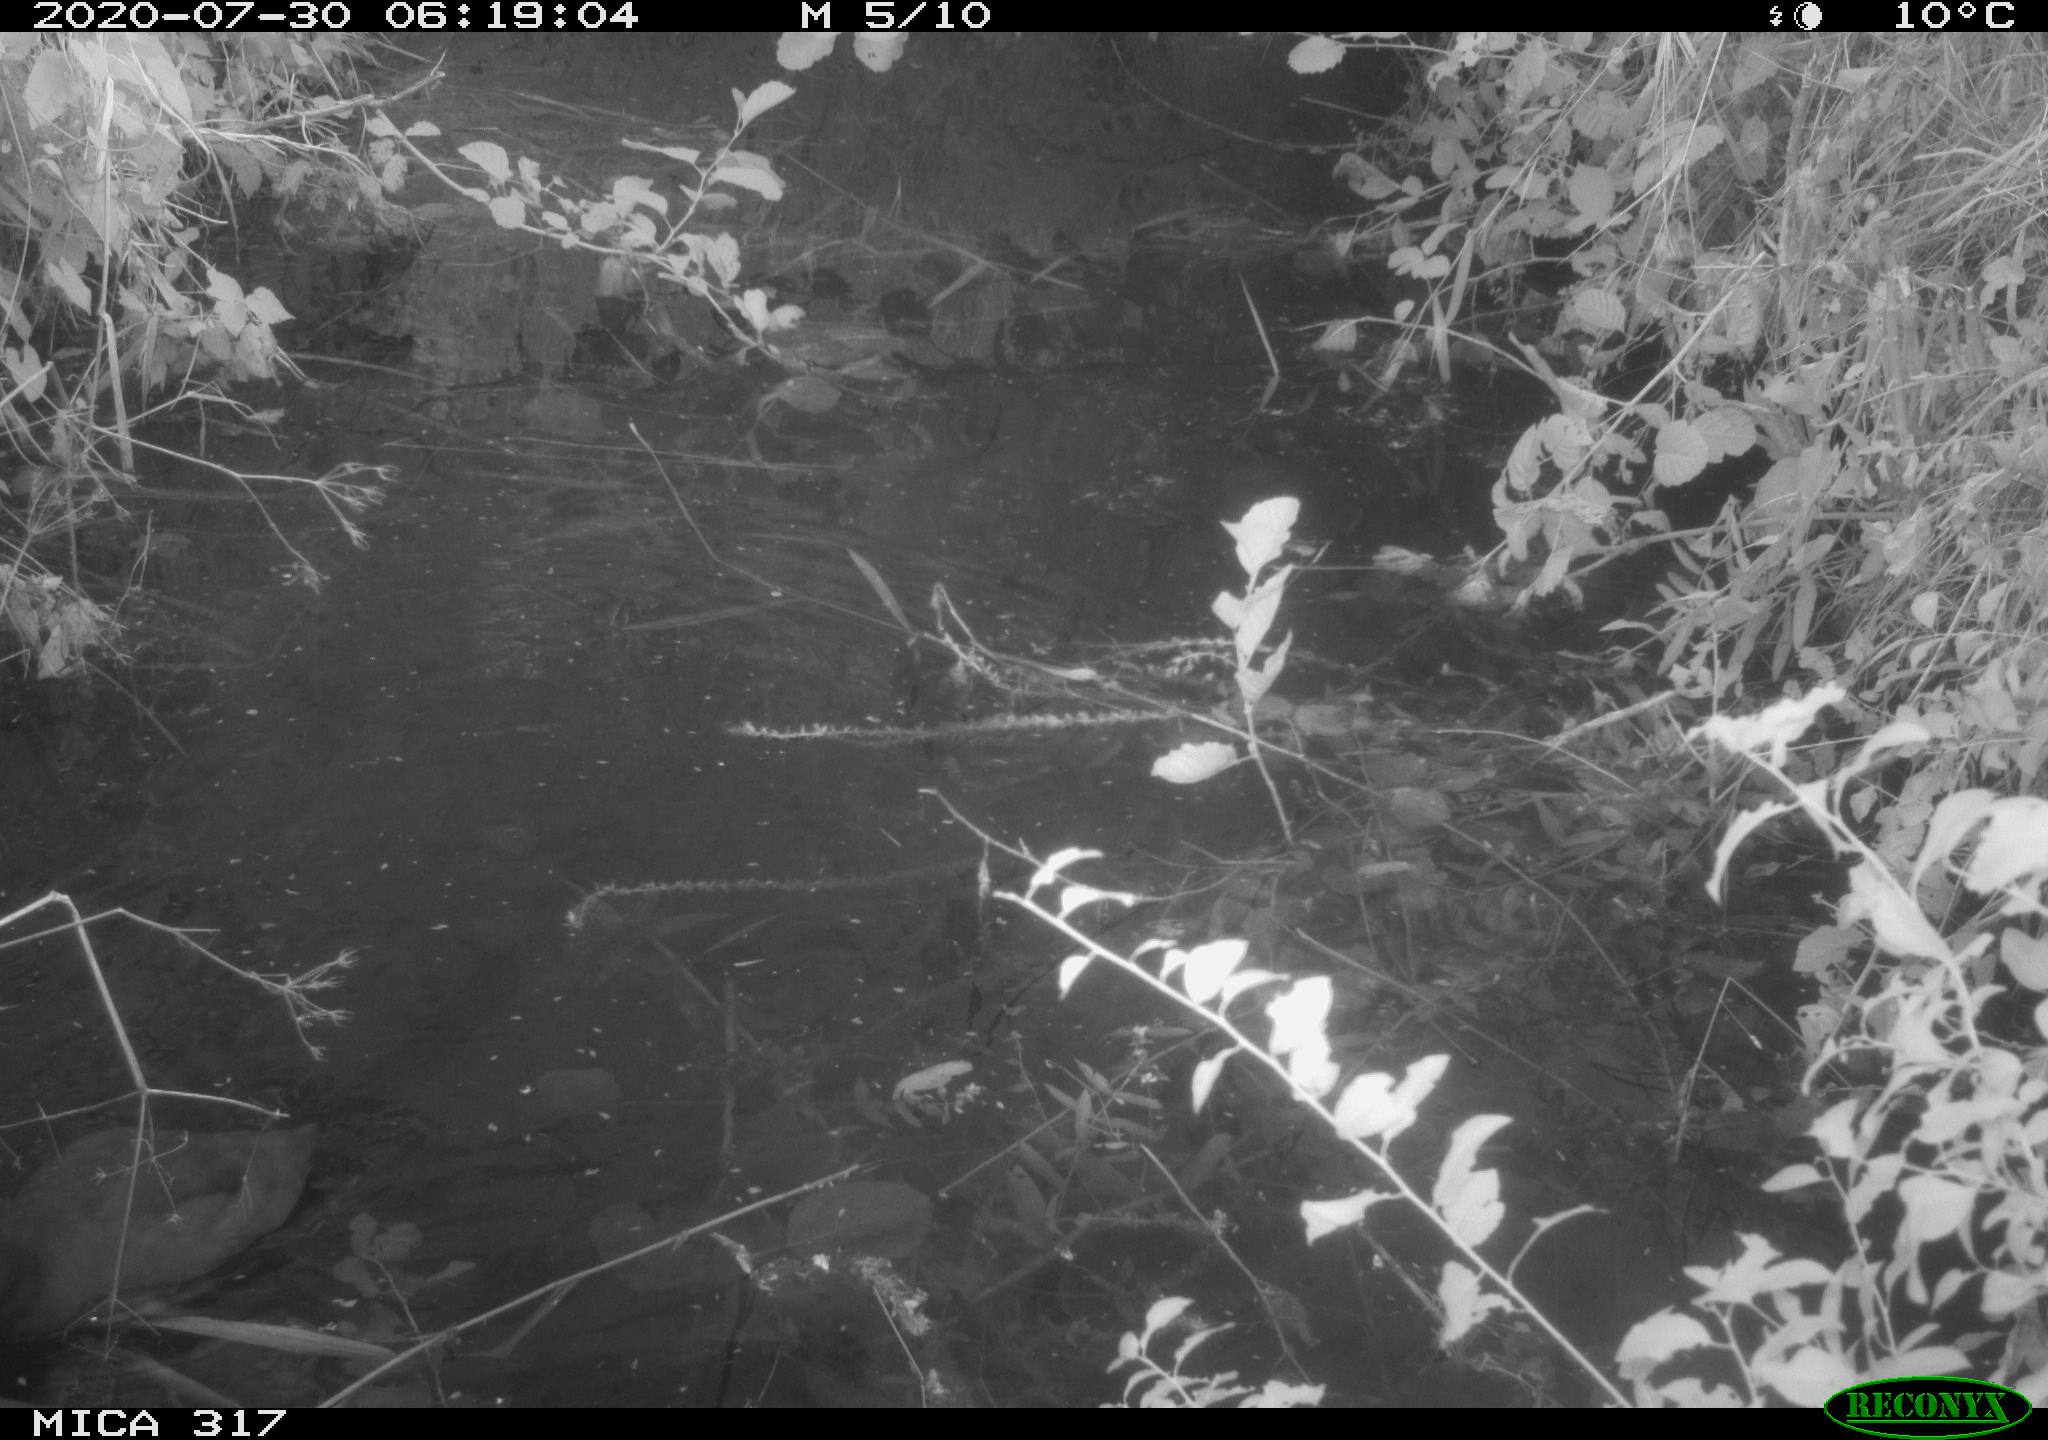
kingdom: Animalia
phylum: Chordata
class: Aves
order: Gruiformes
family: Rallidae
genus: Fulica
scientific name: Fulica atra
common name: Eurasian coot
